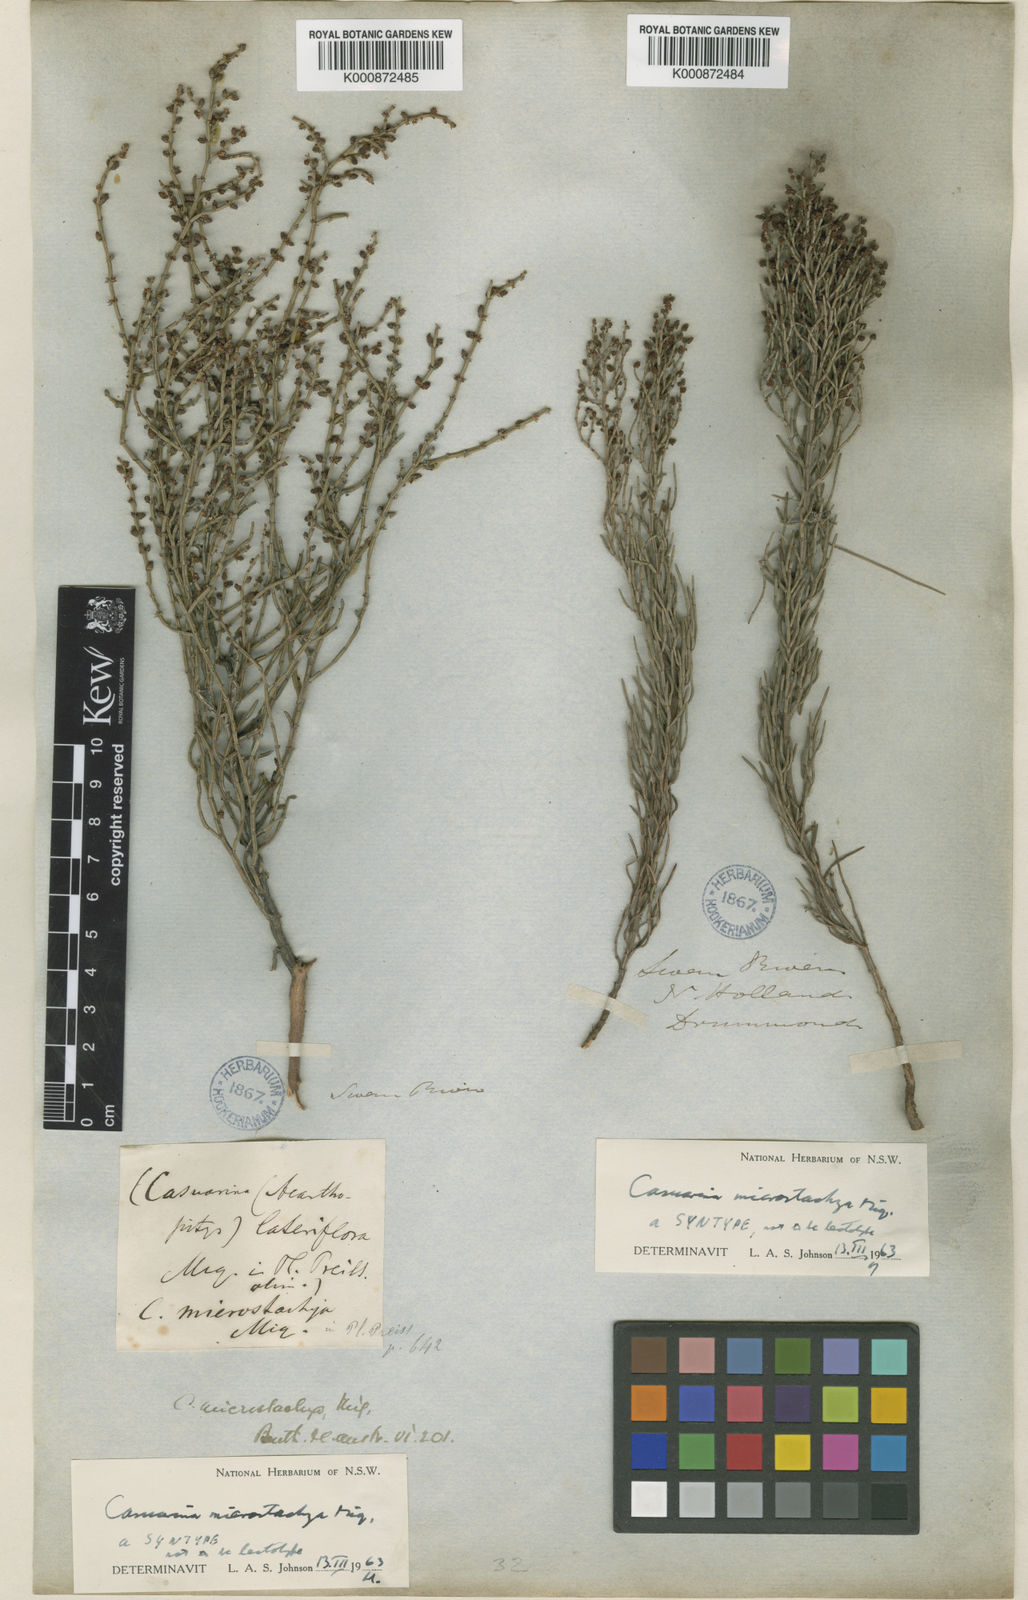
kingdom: Plantae
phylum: Tracheophyta
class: Magnoliopsida
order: Fagales
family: Casuarinaceae
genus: Allocasuarina
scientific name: Allocasuarina microstachya
